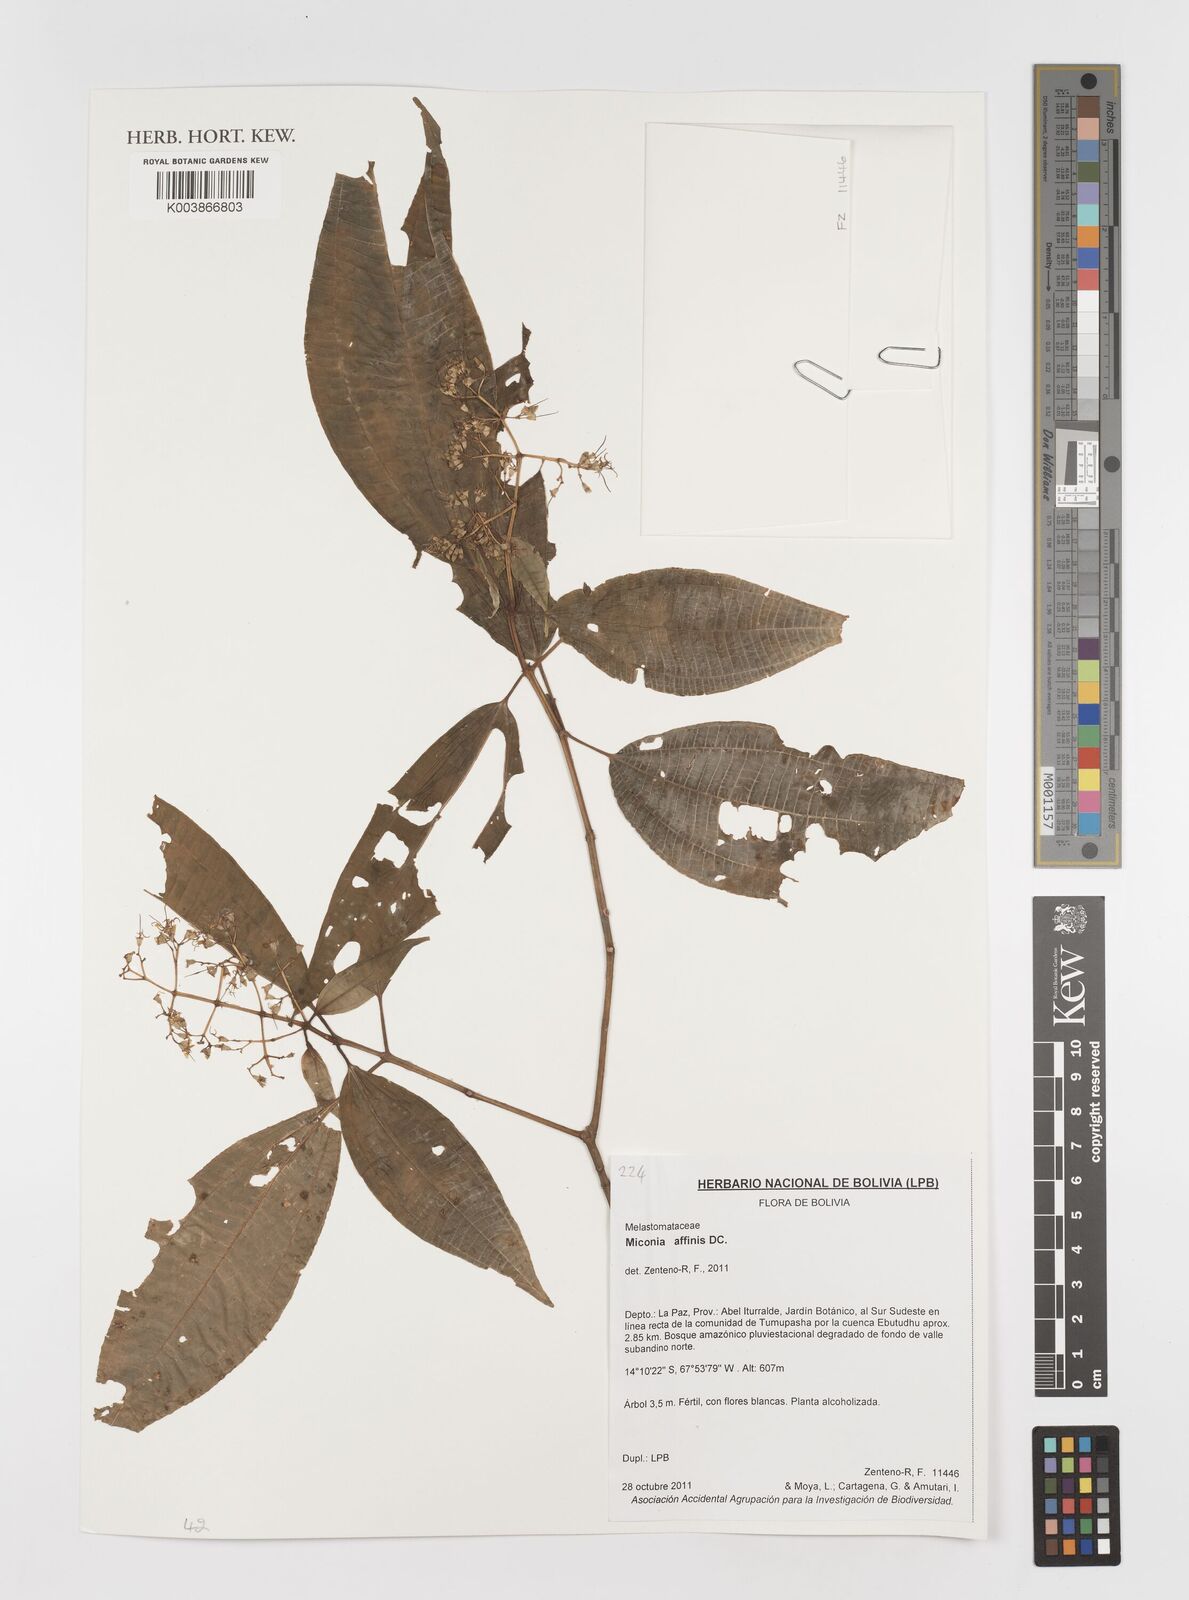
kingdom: Plantae
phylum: Tracheophyta
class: Magnoliopsida
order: Myrtales
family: Melastomataceae
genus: Miconia
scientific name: Miconia
